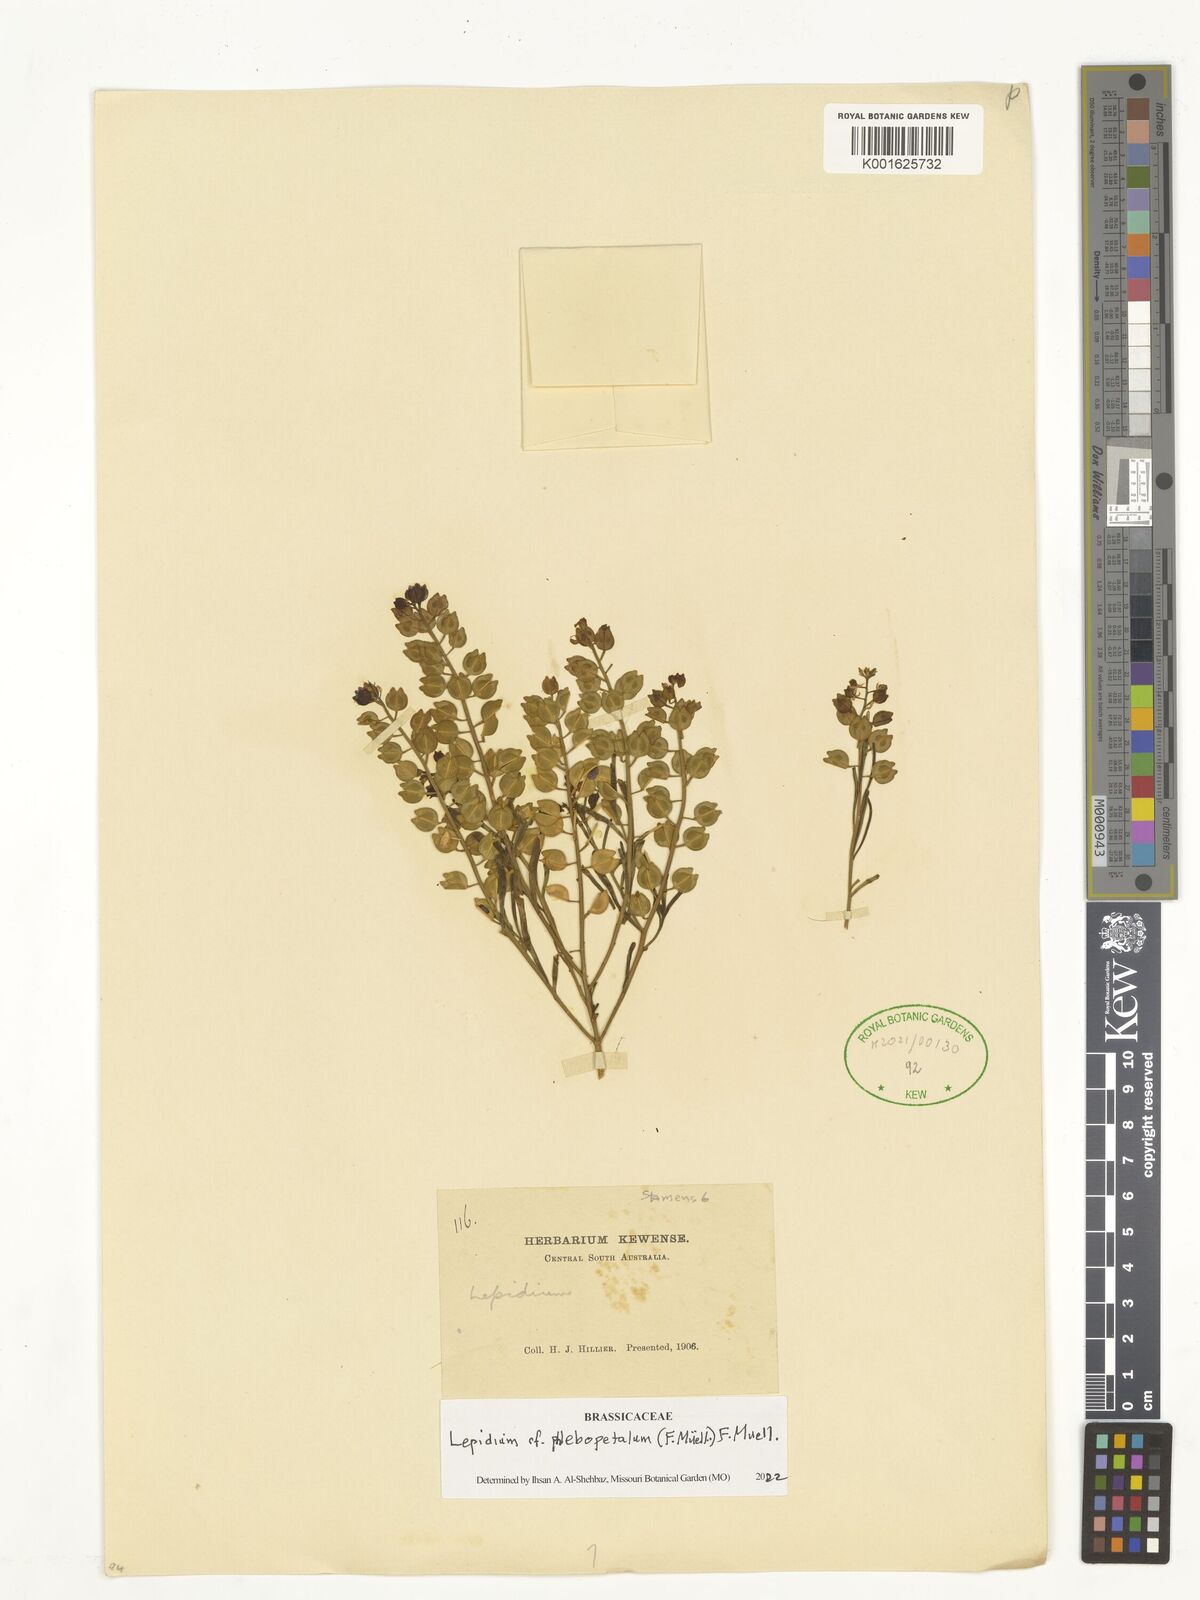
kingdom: Plantae
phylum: Tracheophyta
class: Magnoliopsida
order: Brassicales
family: Brassicaceae
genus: Lepidium
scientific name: Lepidium phlebopetalum
